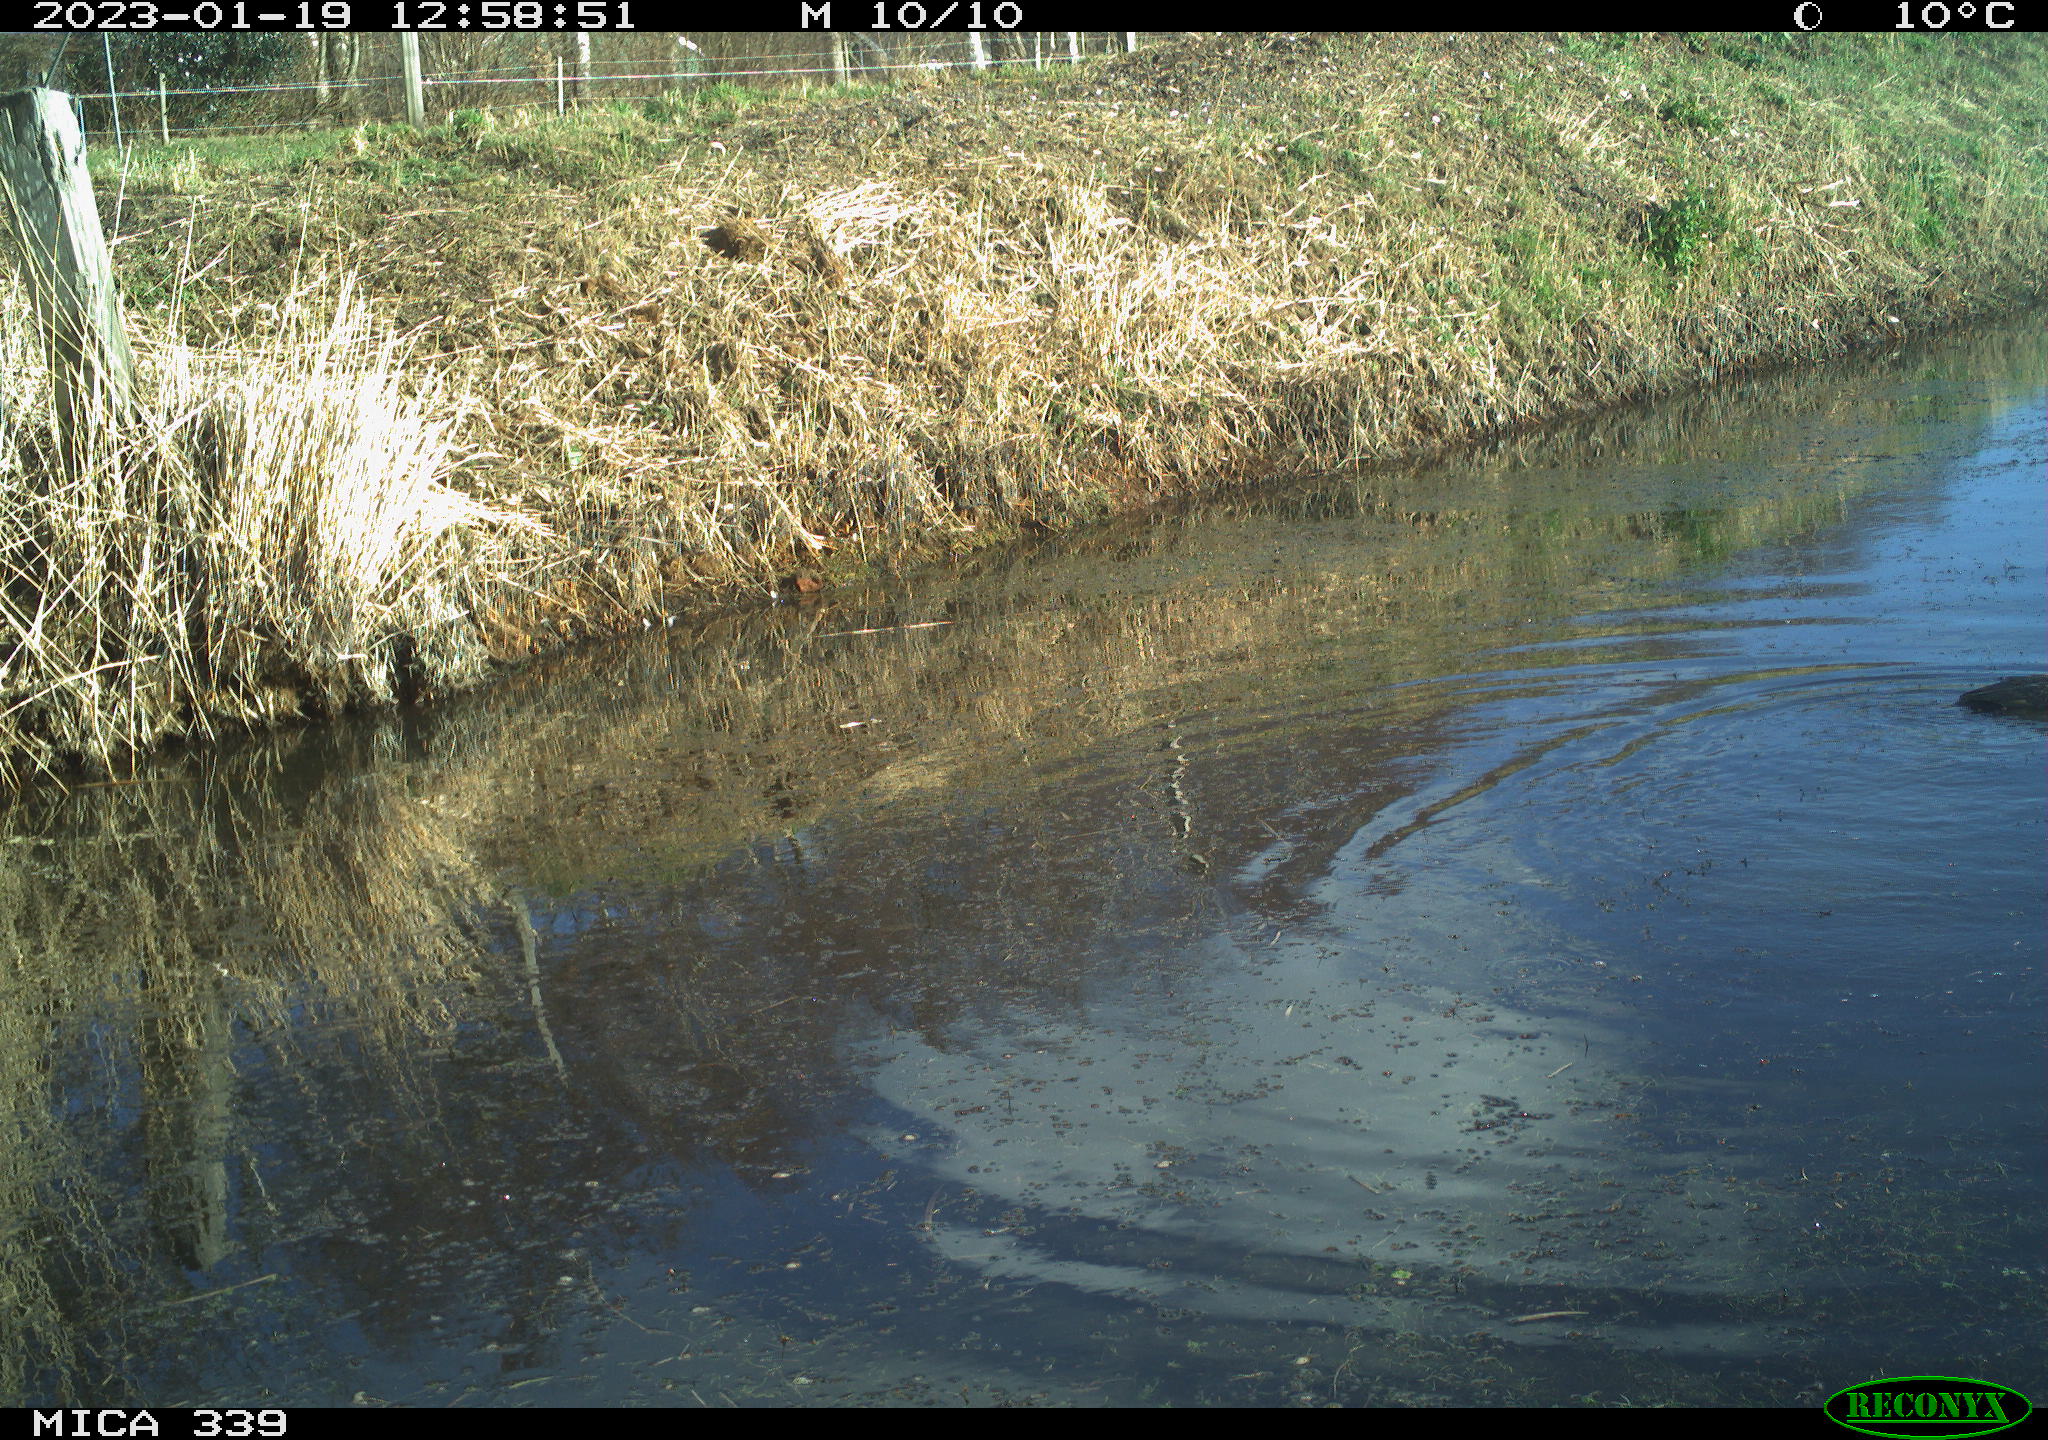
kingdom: Animalia
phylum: Chordata
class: Aves
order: Suliformes
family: Phalacrocoracidae
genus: Phalacrocorax
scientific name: Phalacrocorax carbo
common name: Great cormorant
